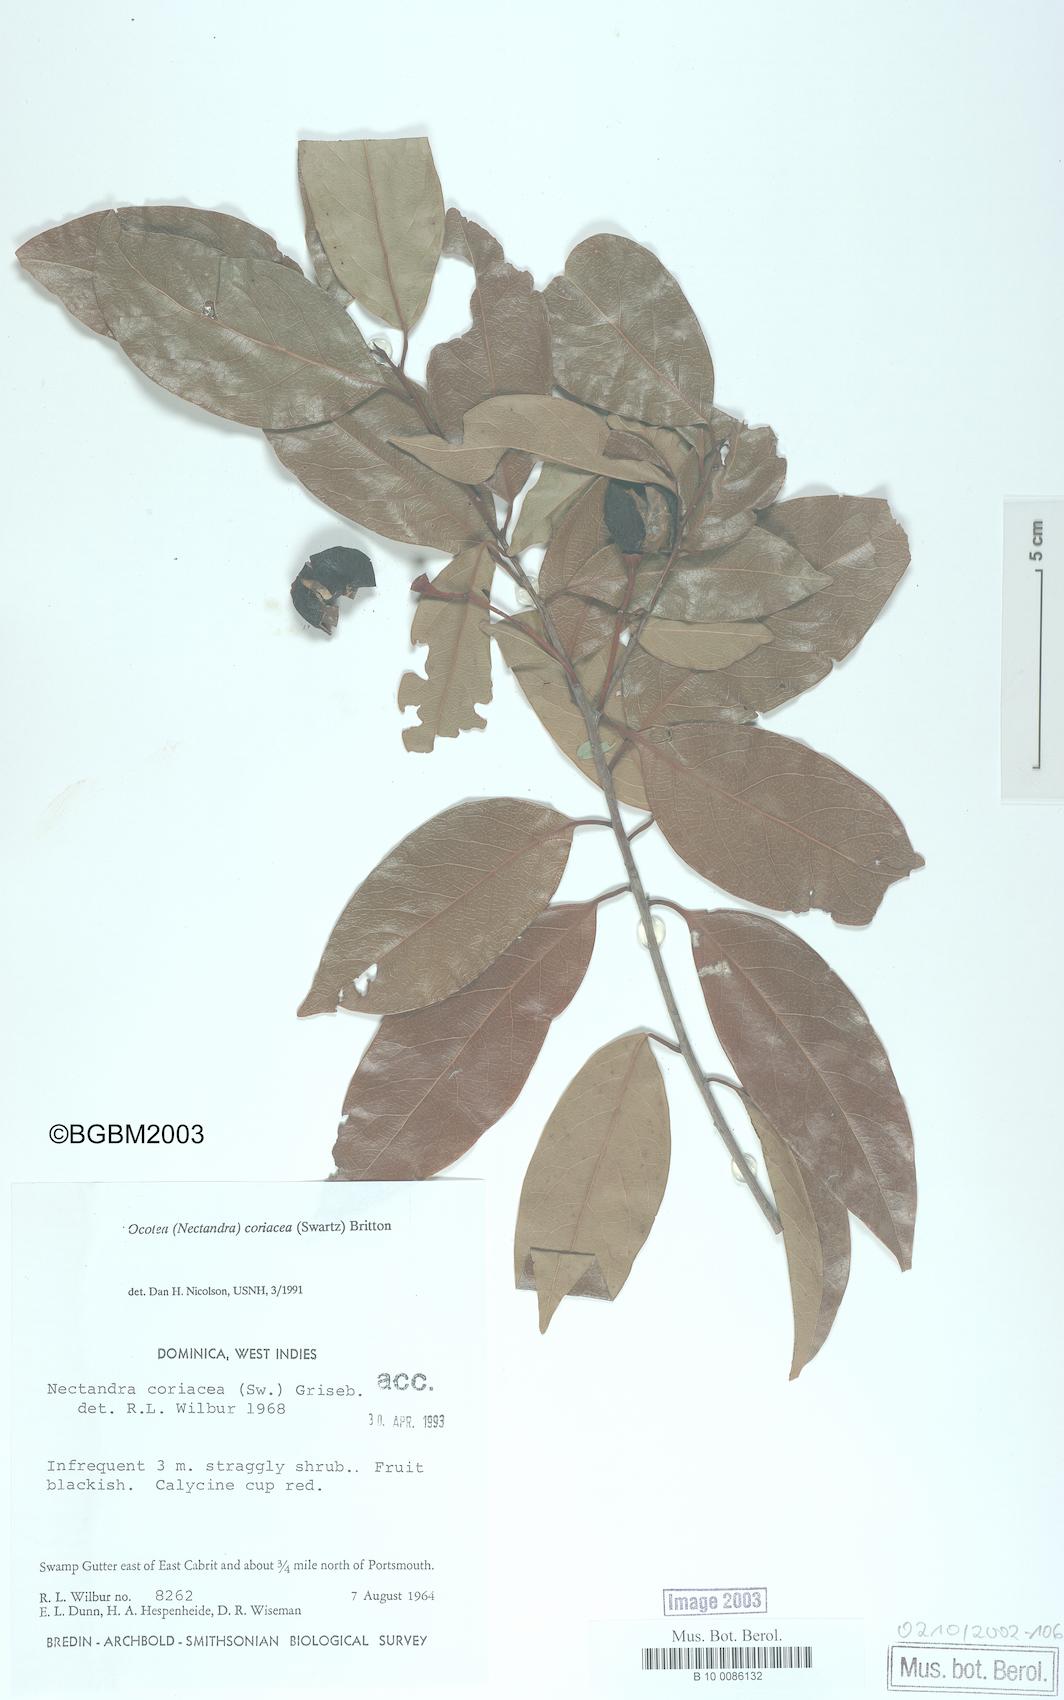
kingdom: Plantae
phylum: Tracheophyta
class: Magnoliopsida
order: Laurales
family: Lauraceae
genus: Damburneya
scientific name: Damburneya
